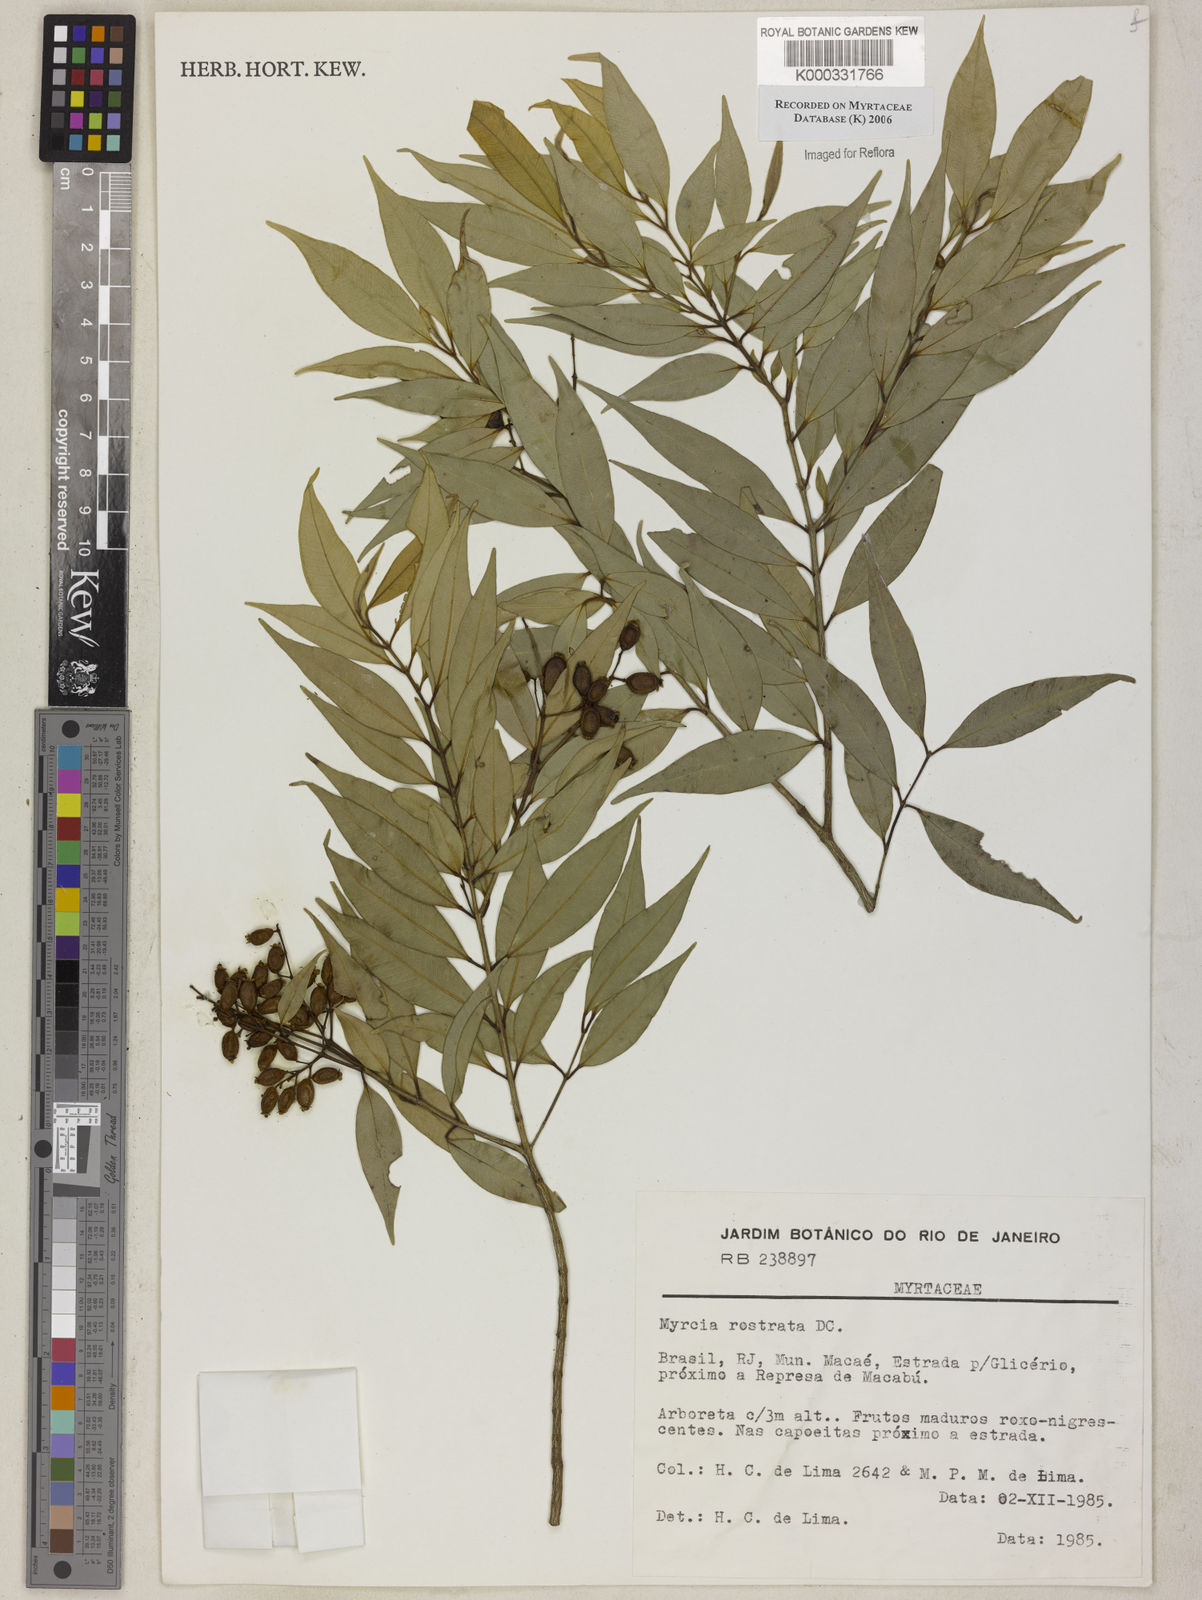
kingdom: Plantae
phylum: Tracheophyta
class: Magnoliopsida
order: Myrtales
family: Myrtaceae
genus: Myrcia
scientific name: Myrcia splendens
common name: Surinam cherry
